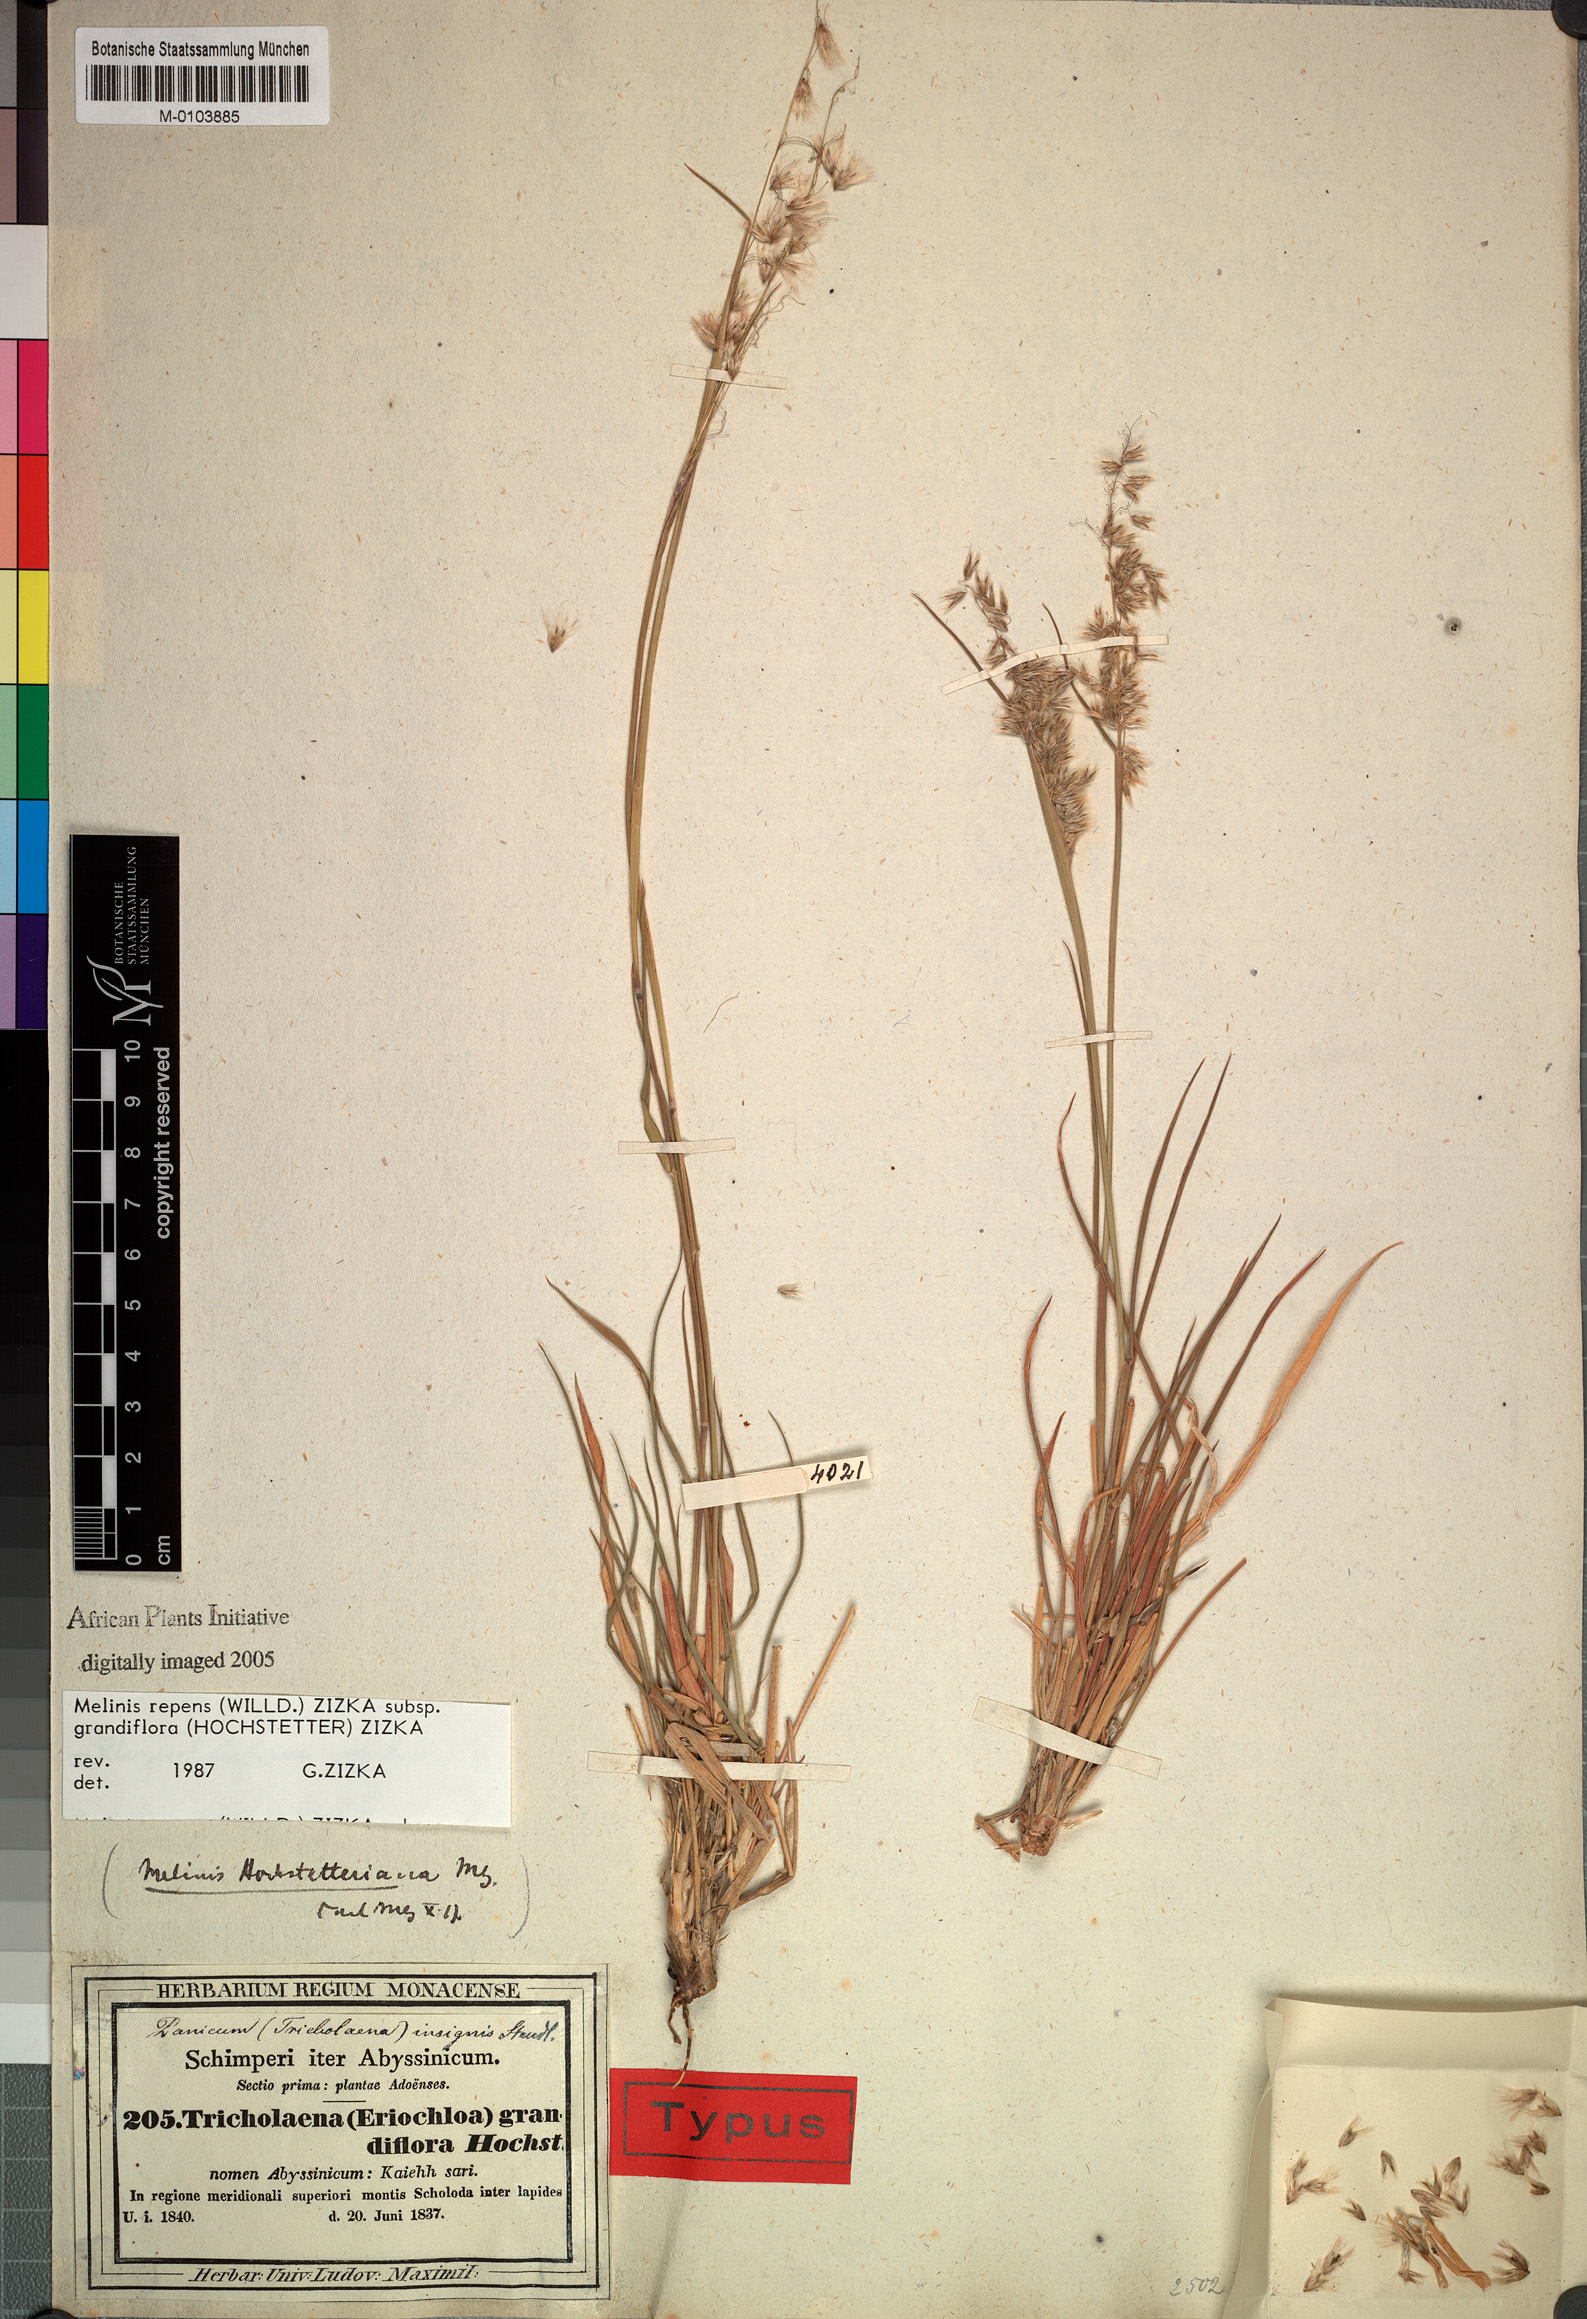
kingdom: Plantae
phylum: Tracheophyta
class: Liliopsida
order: Poales
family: Poaceae
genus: Melinis
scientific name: Melinis repens
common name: Rose natal grass
